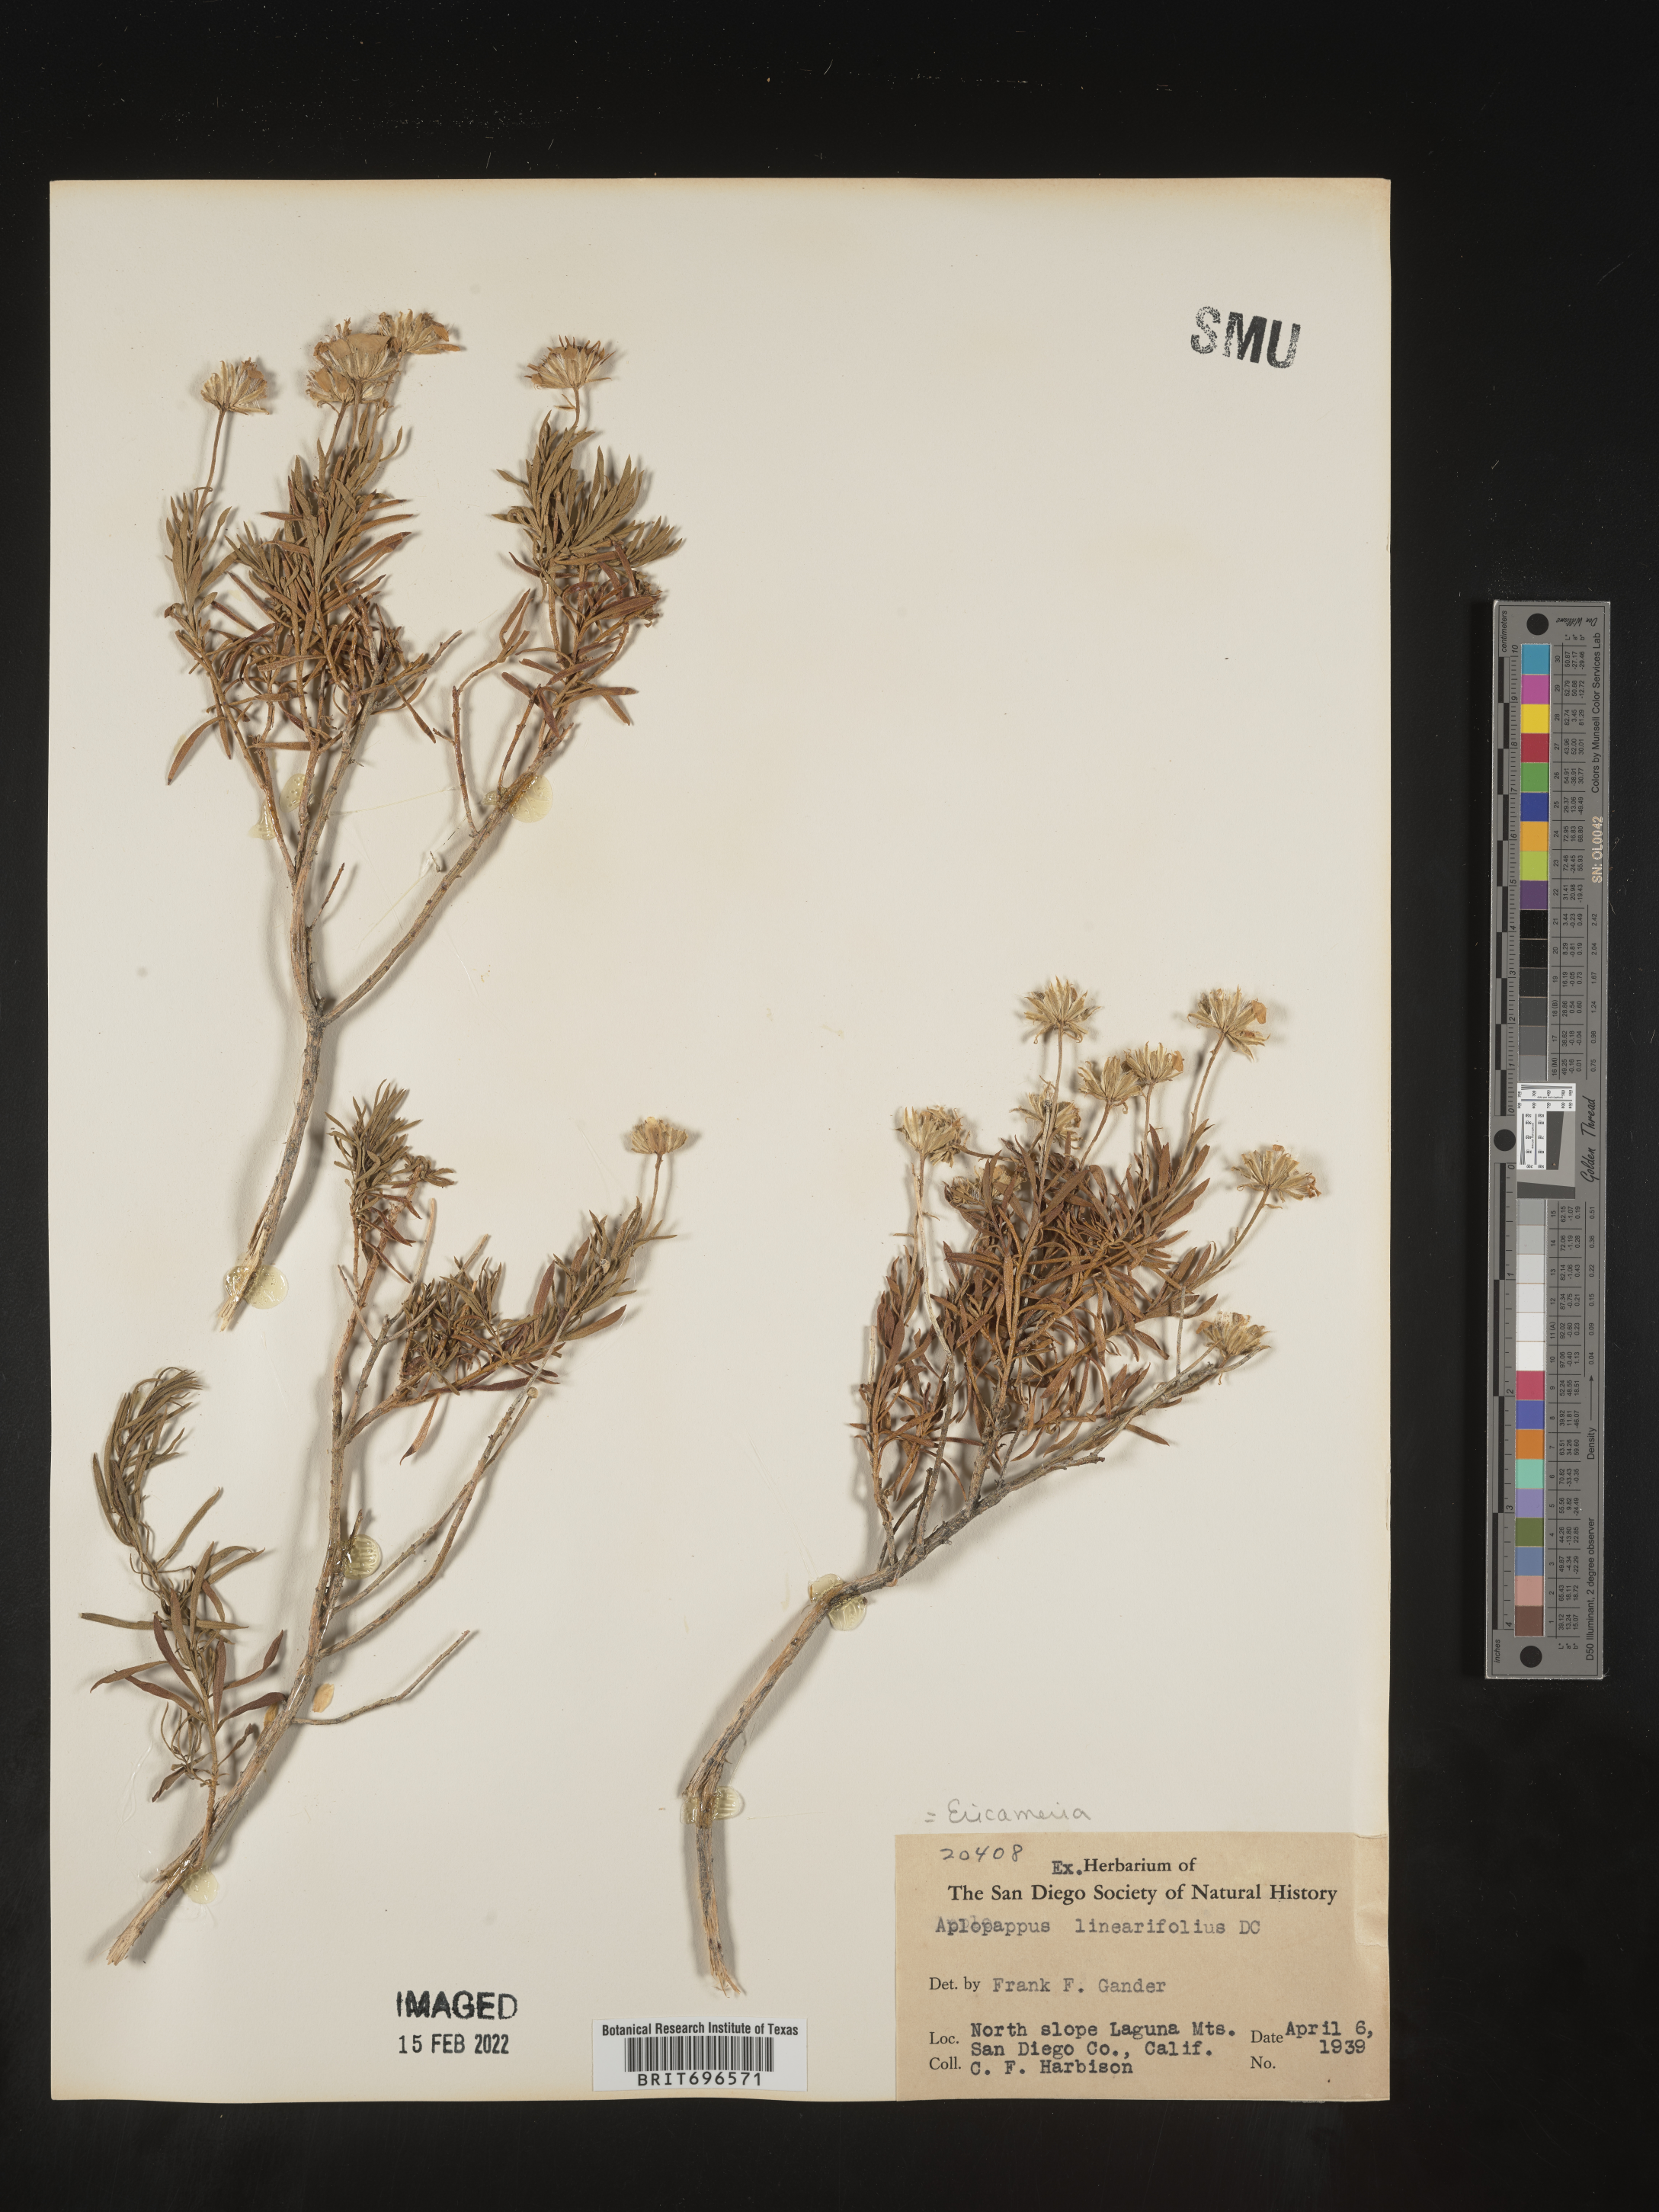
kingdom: Plantae
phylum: Tracheophyta
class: Magnoliopsida
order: Asterales
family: Asteraceae
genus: Ericameria
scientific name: Ericameria linearifolia
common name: Interior goldenbush
